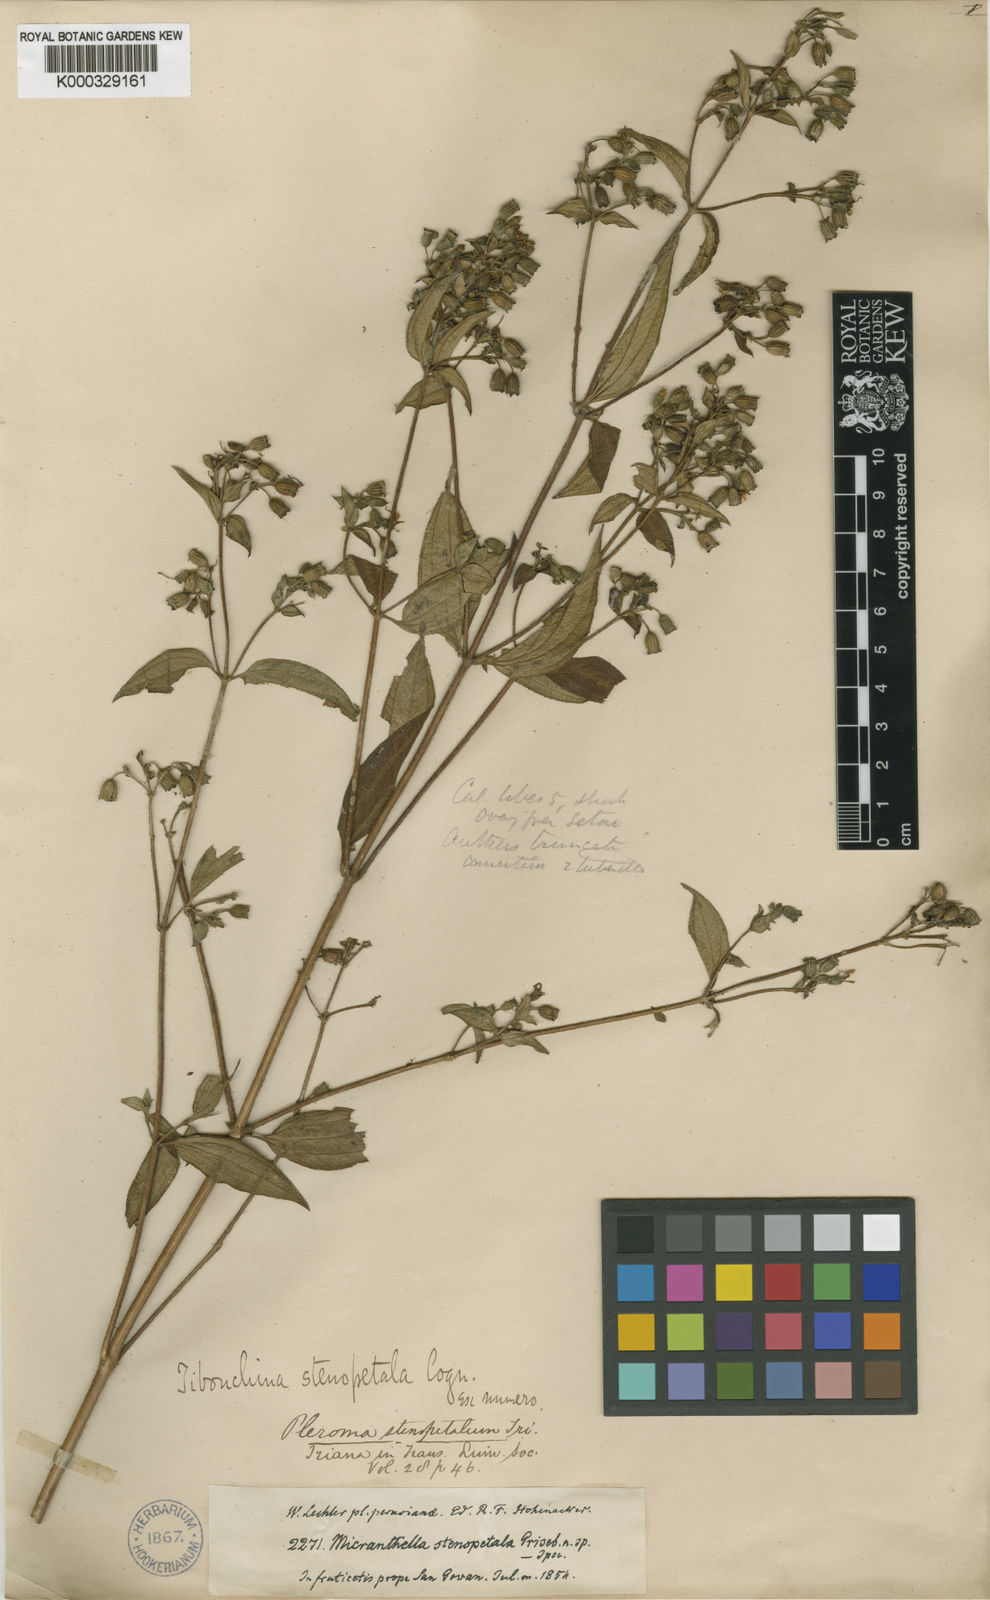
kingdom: Plantae
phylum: Tracheophyta
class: Magnoliopsida
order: Myrtales
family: Melastomataceae
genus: Chaetogastra
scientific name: Chaetogastra stenopetala
